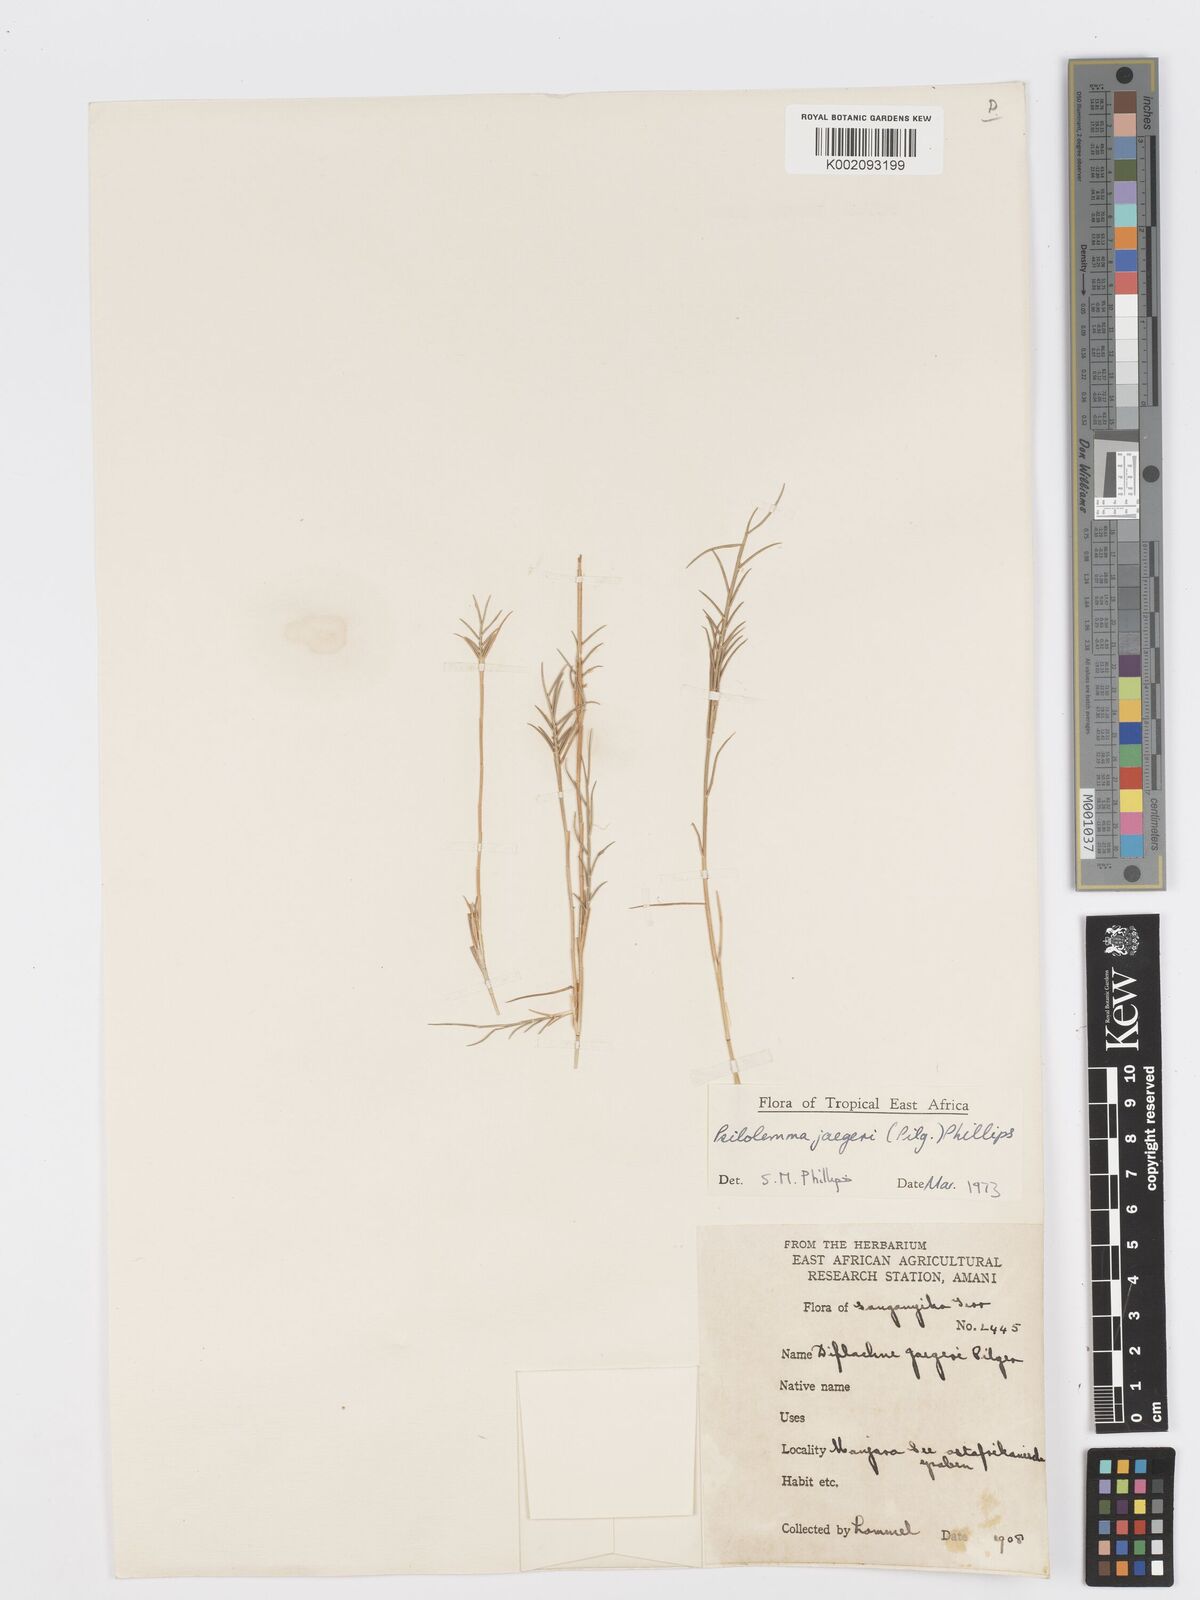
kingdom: Plantae
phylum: Tracheophyta
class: Liliopsida
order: Poales
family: Poaceae
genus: Psilolemma
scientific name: Psilolemma jaegeri
